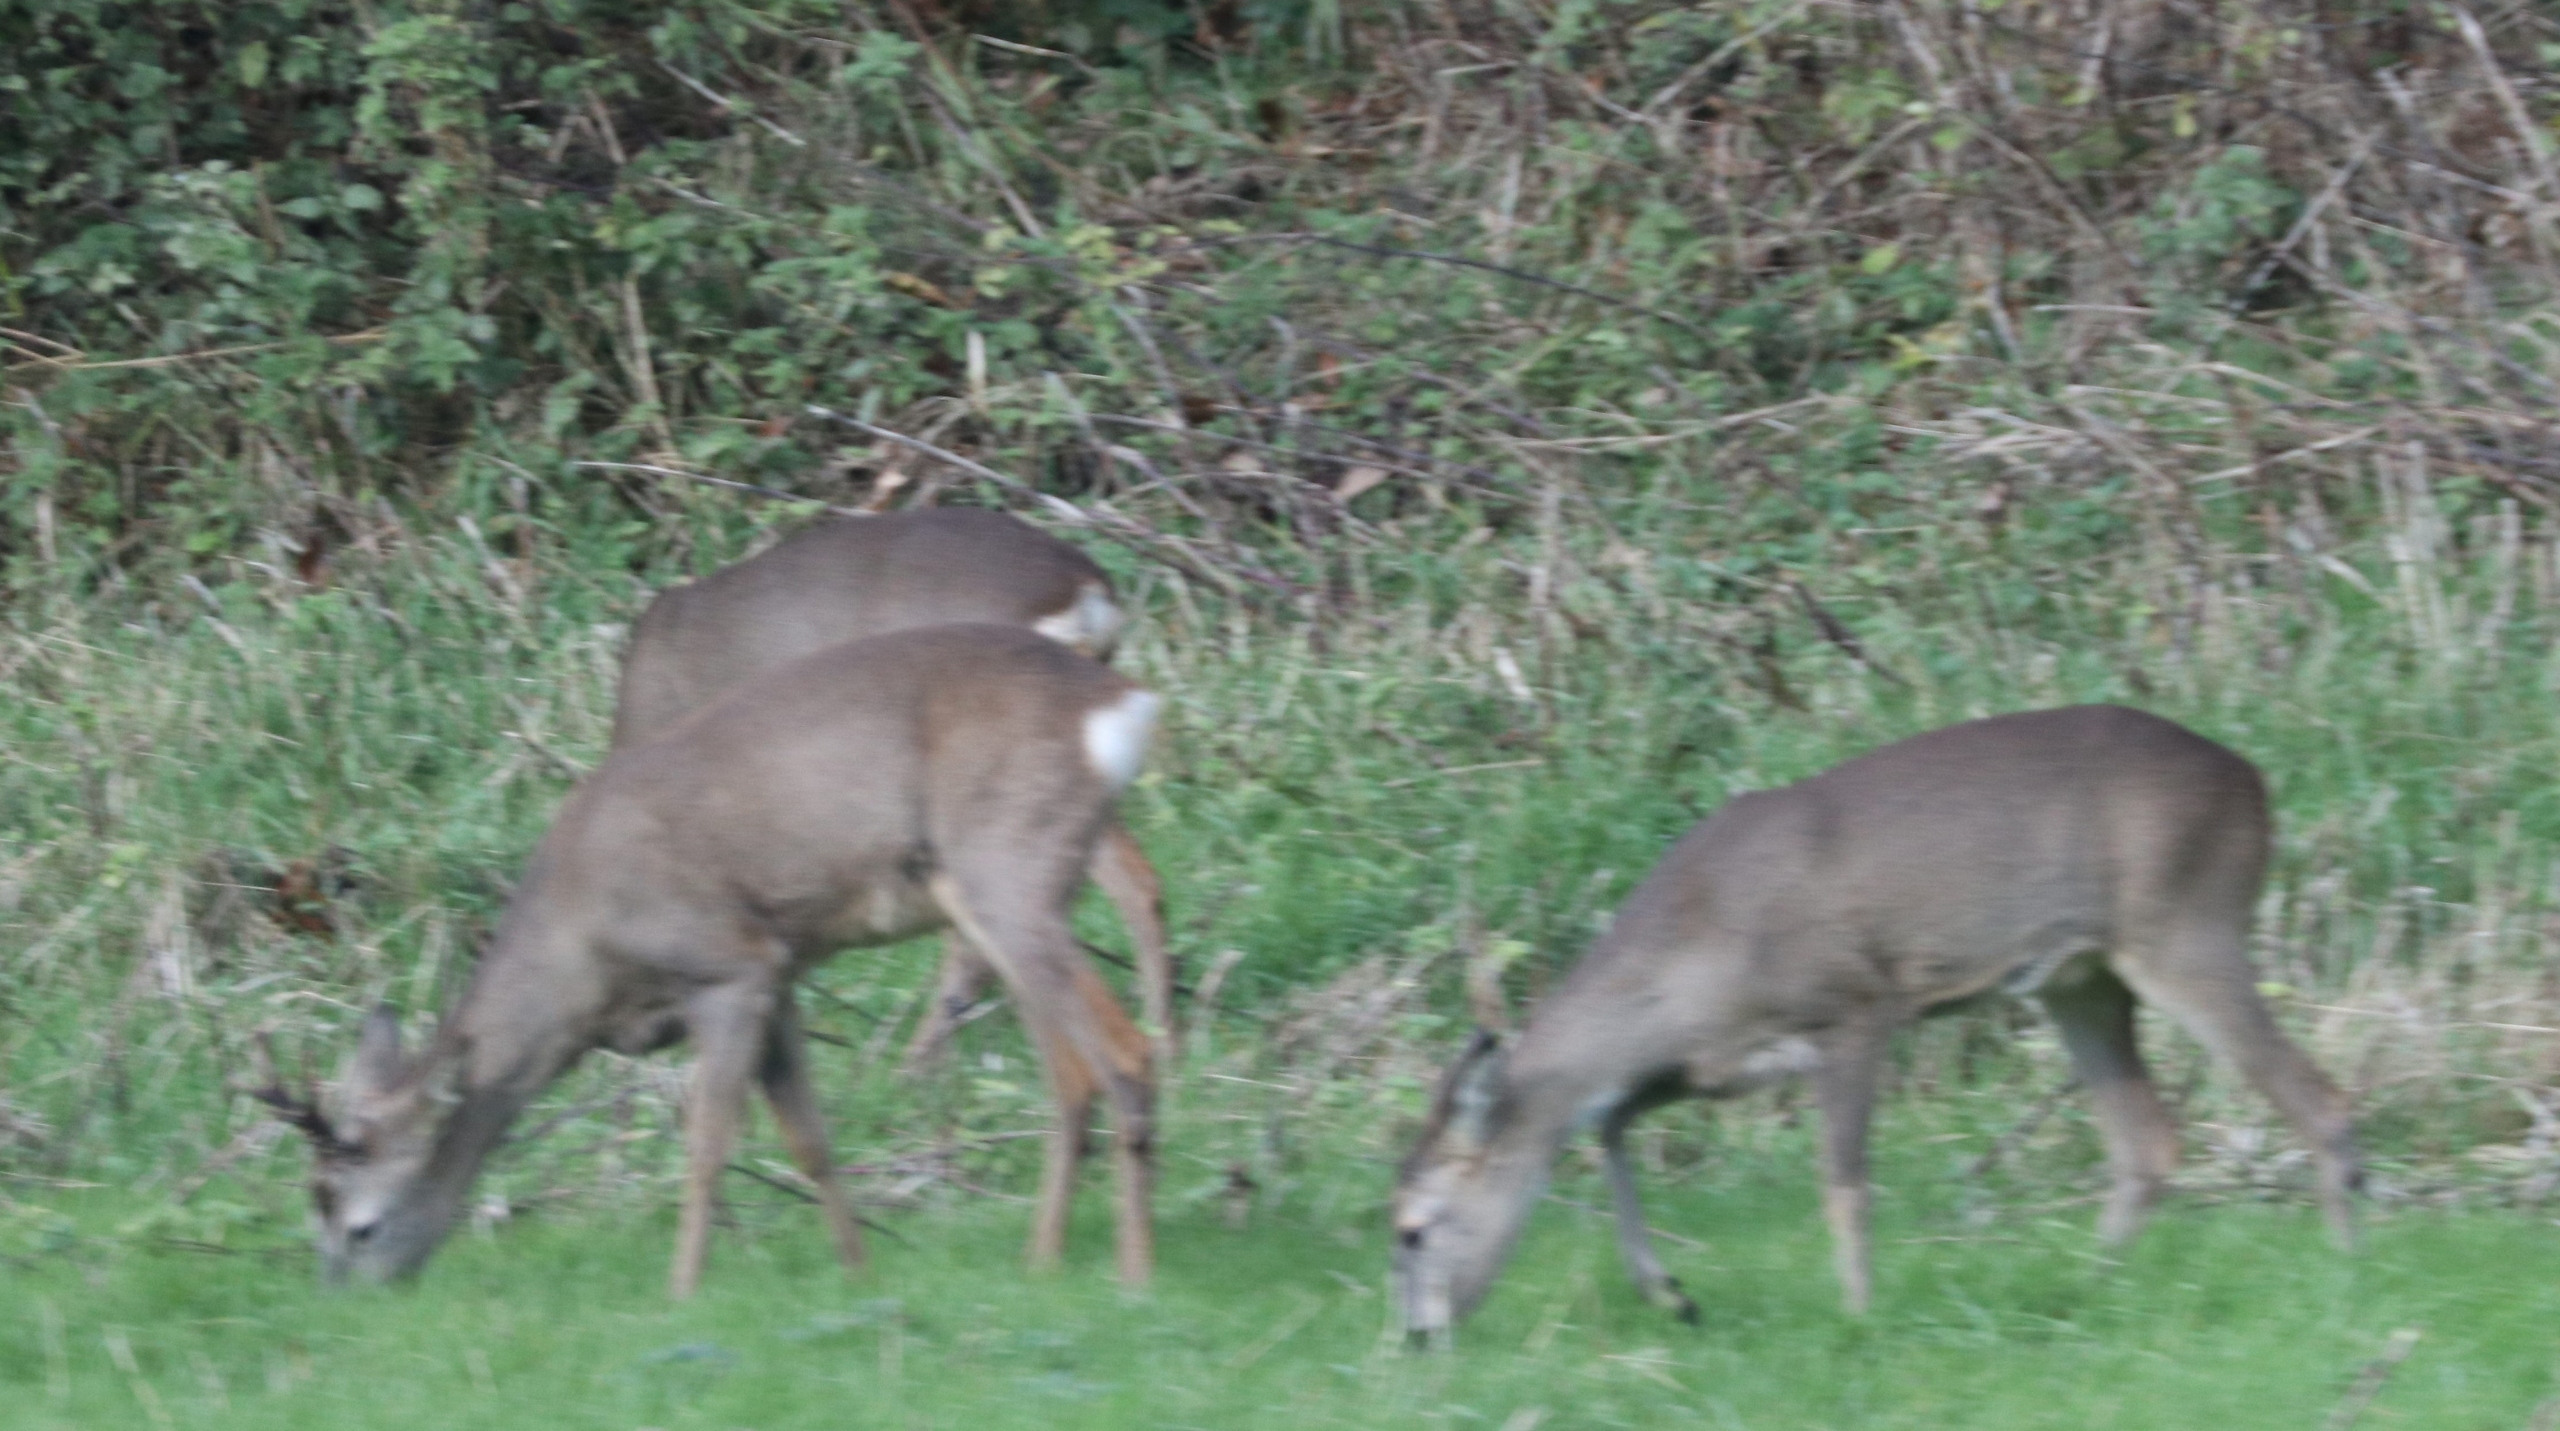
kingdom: Animalia
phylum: Chordata
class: Mammalia
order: Artiodactyla
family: Cervidae
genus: Capreolus
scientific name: Capreolus capreolus
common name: Rådyr
